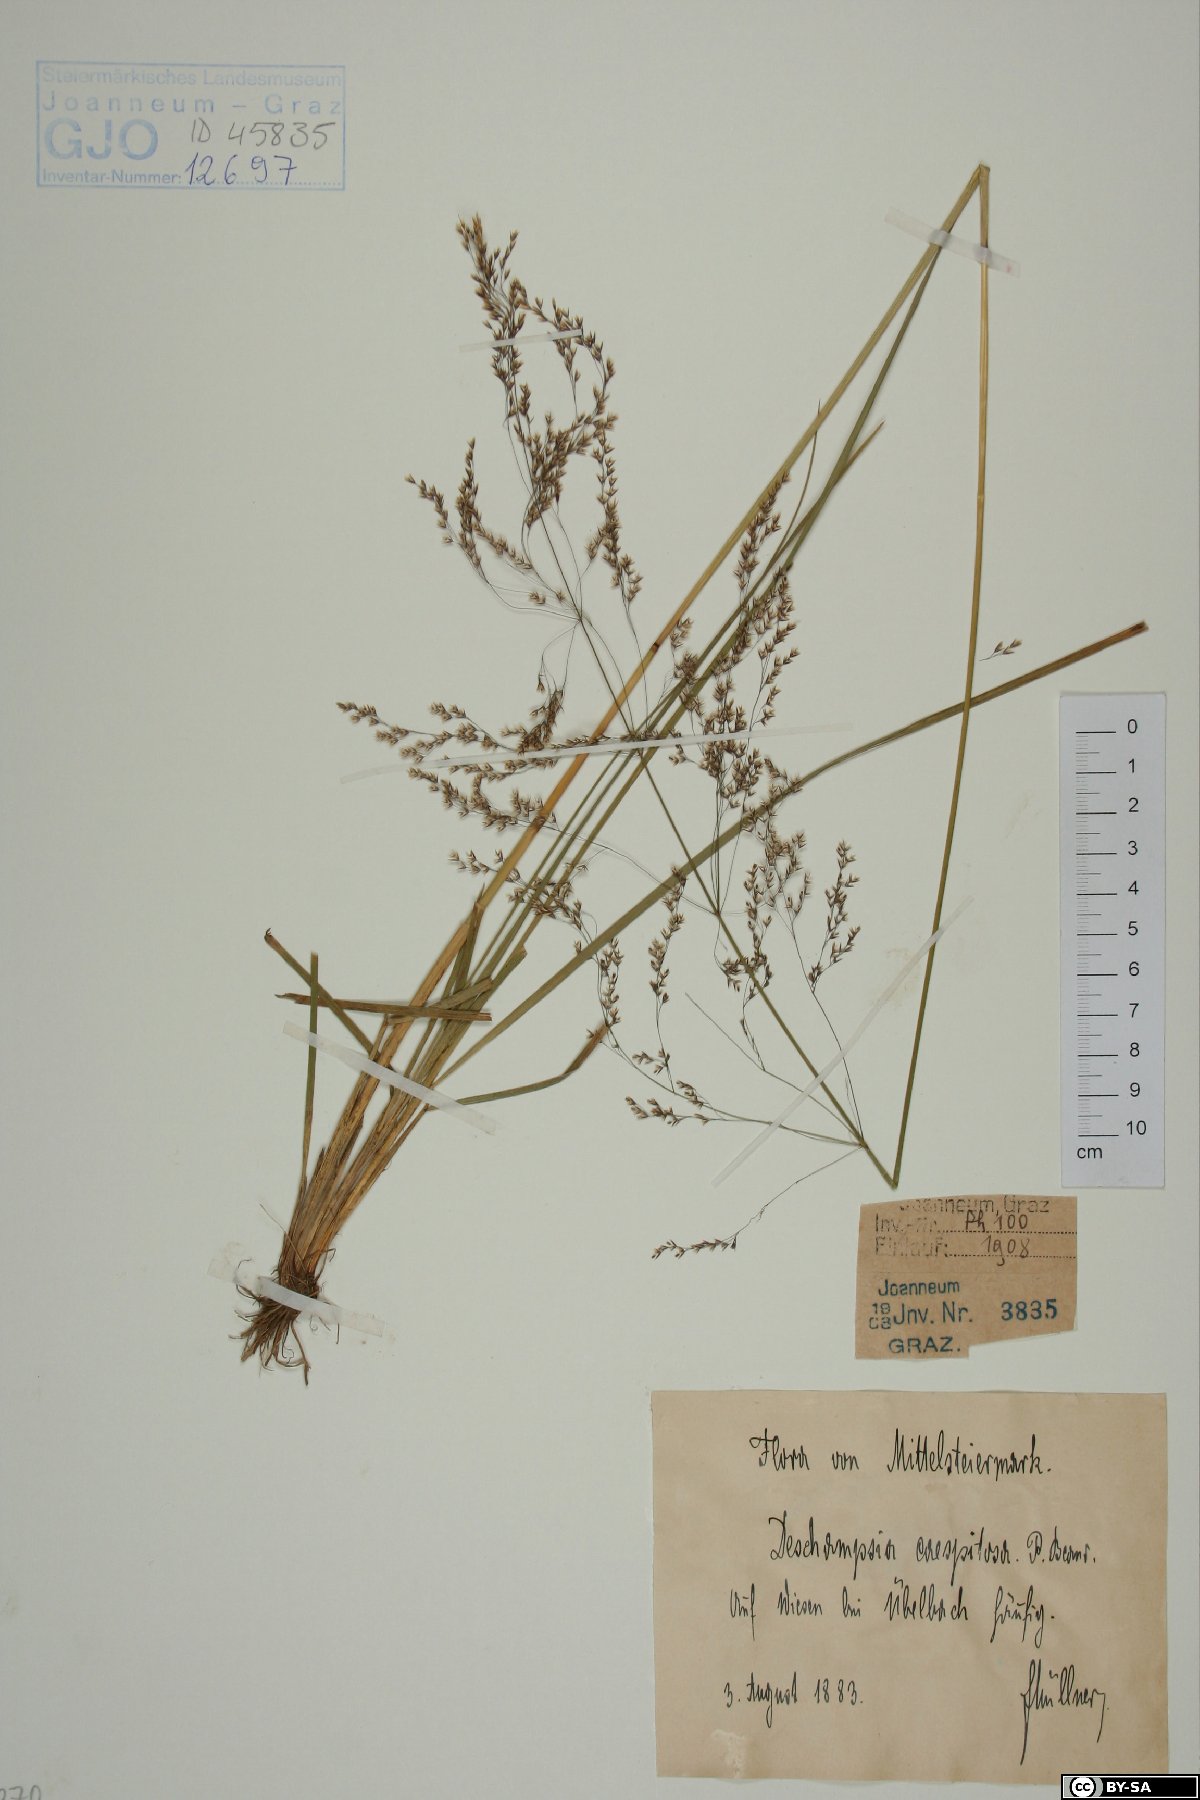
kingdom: Plantae
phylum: Tracheophyta
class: Liliopsida
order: Poales
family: Poaceae
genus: Deschampsia
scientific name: Deschampsia cespitosa
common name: Tufted hair-grass
